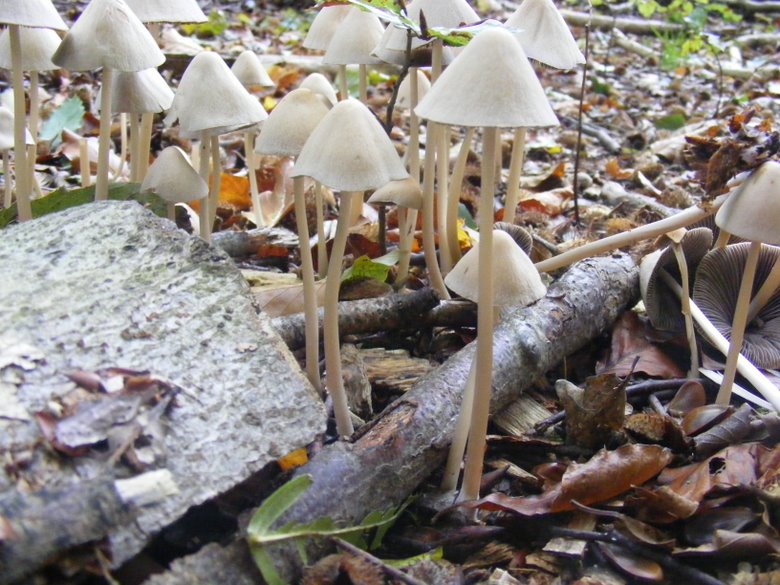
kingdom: Fungi
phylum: Basidiomycota
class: Agaricomycetes
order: Agaricales
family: Psathyrellaceae
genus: Parasola
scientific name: Parasola conopilea
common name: kegle-hjulhat
